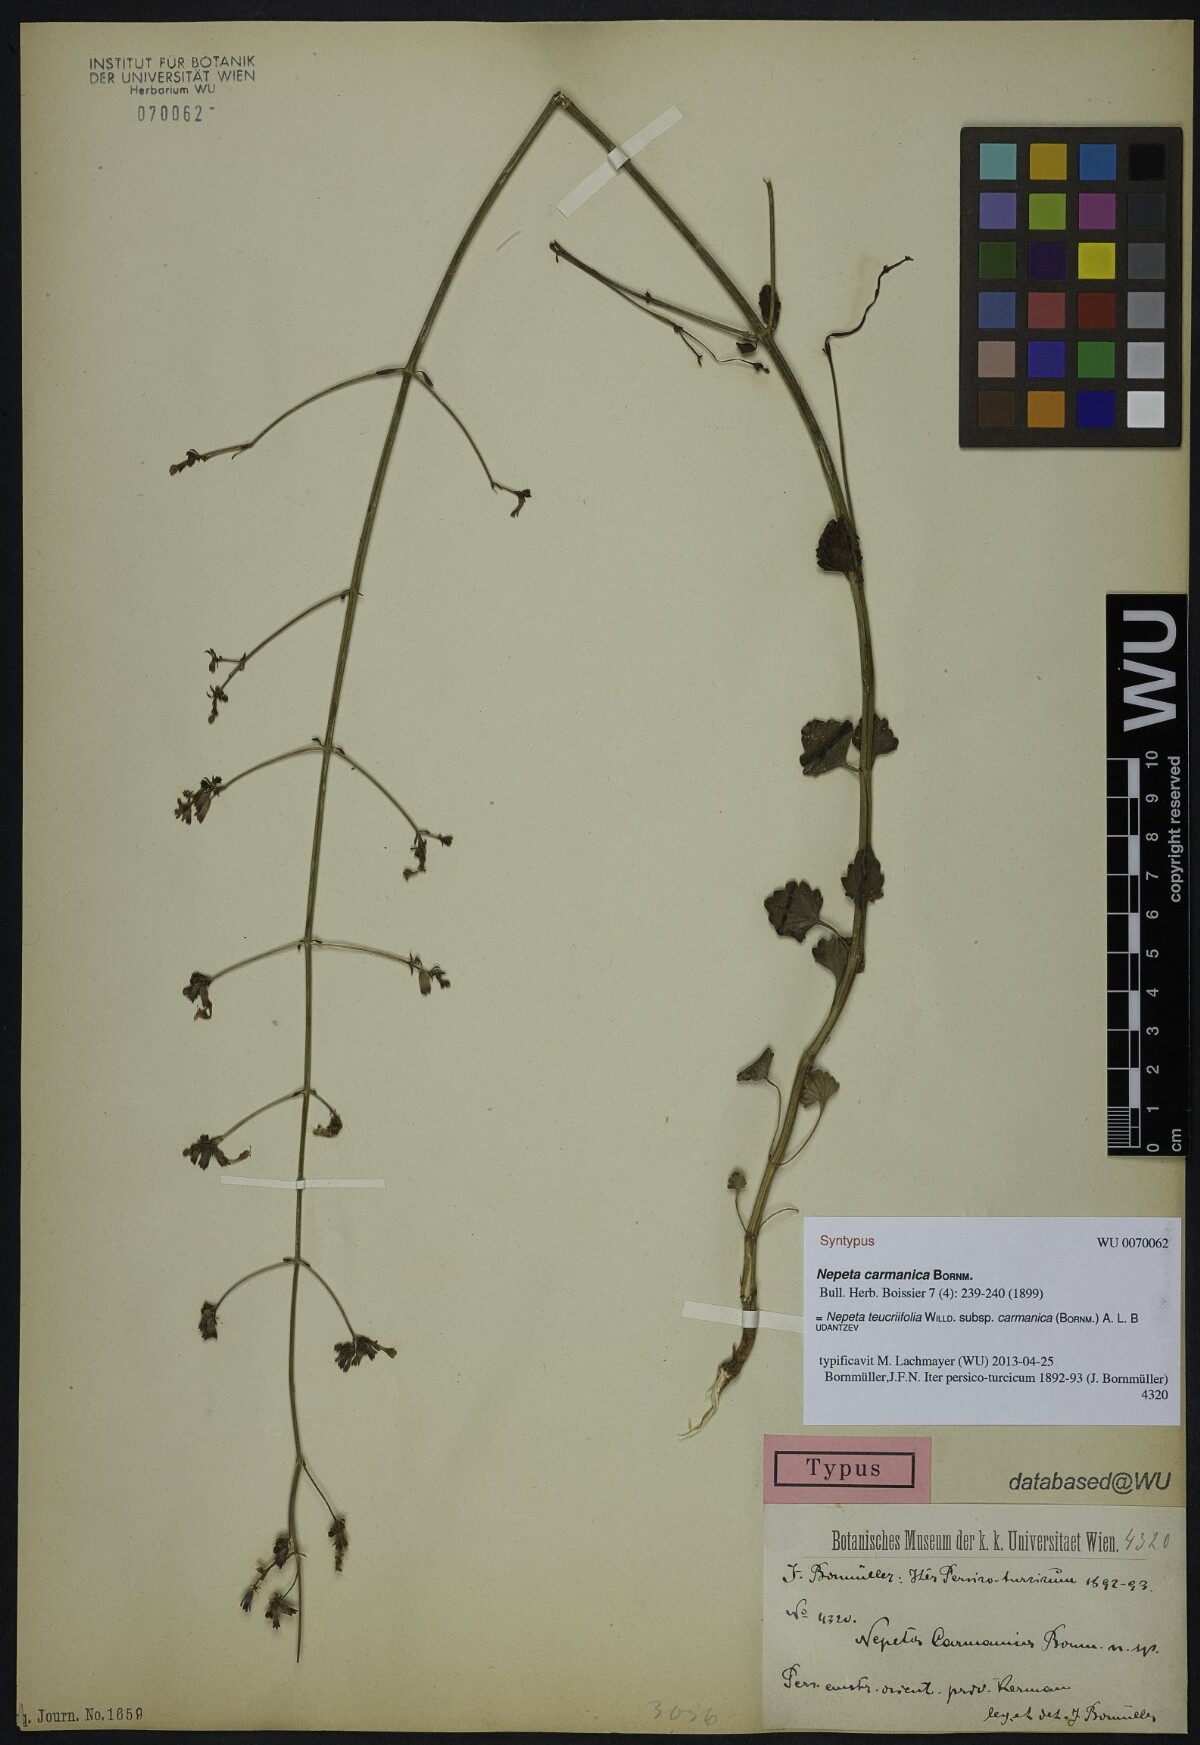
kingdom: Plantae
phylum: Tracheophyta
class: Magnoliopsida
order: Lamiales
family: Lamiaceae
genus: Nepeta
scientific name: Nepeta teucriifolia
